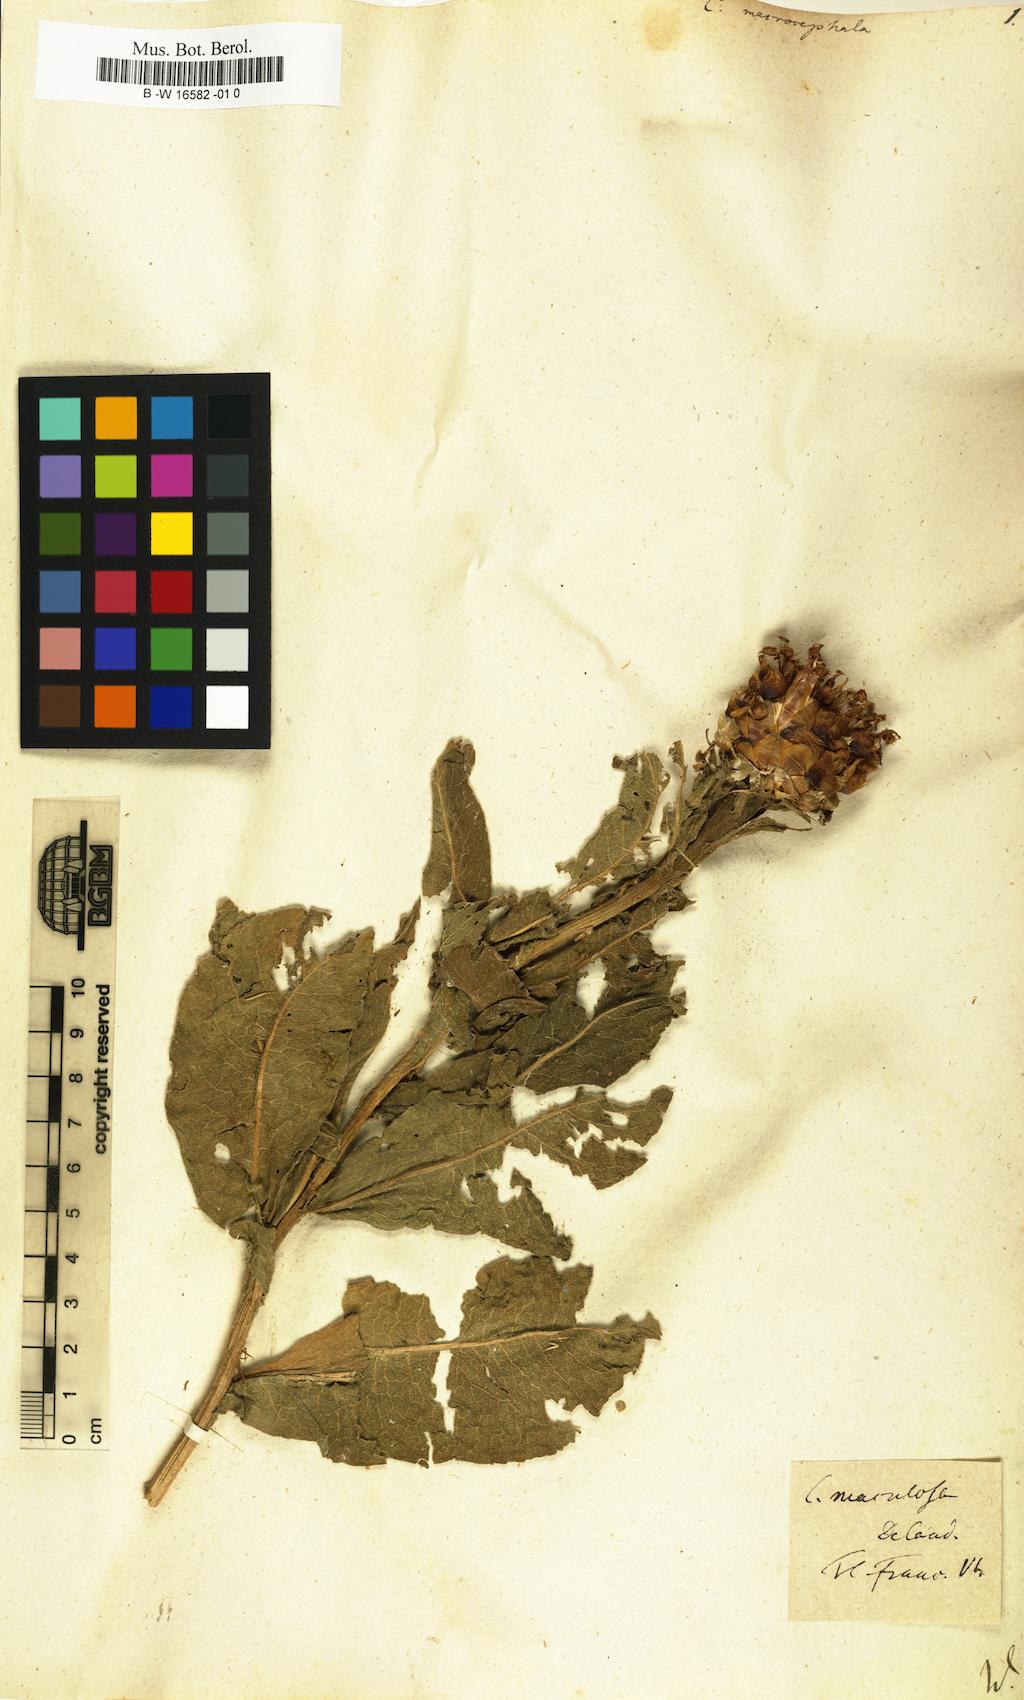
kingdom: Plantae
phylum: Tracheophyta
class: Magnoliopsida
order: Asterales
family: Asteraceae
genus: Centaurea
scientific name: Centaurea macrocephala
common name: Big-head knapweed
